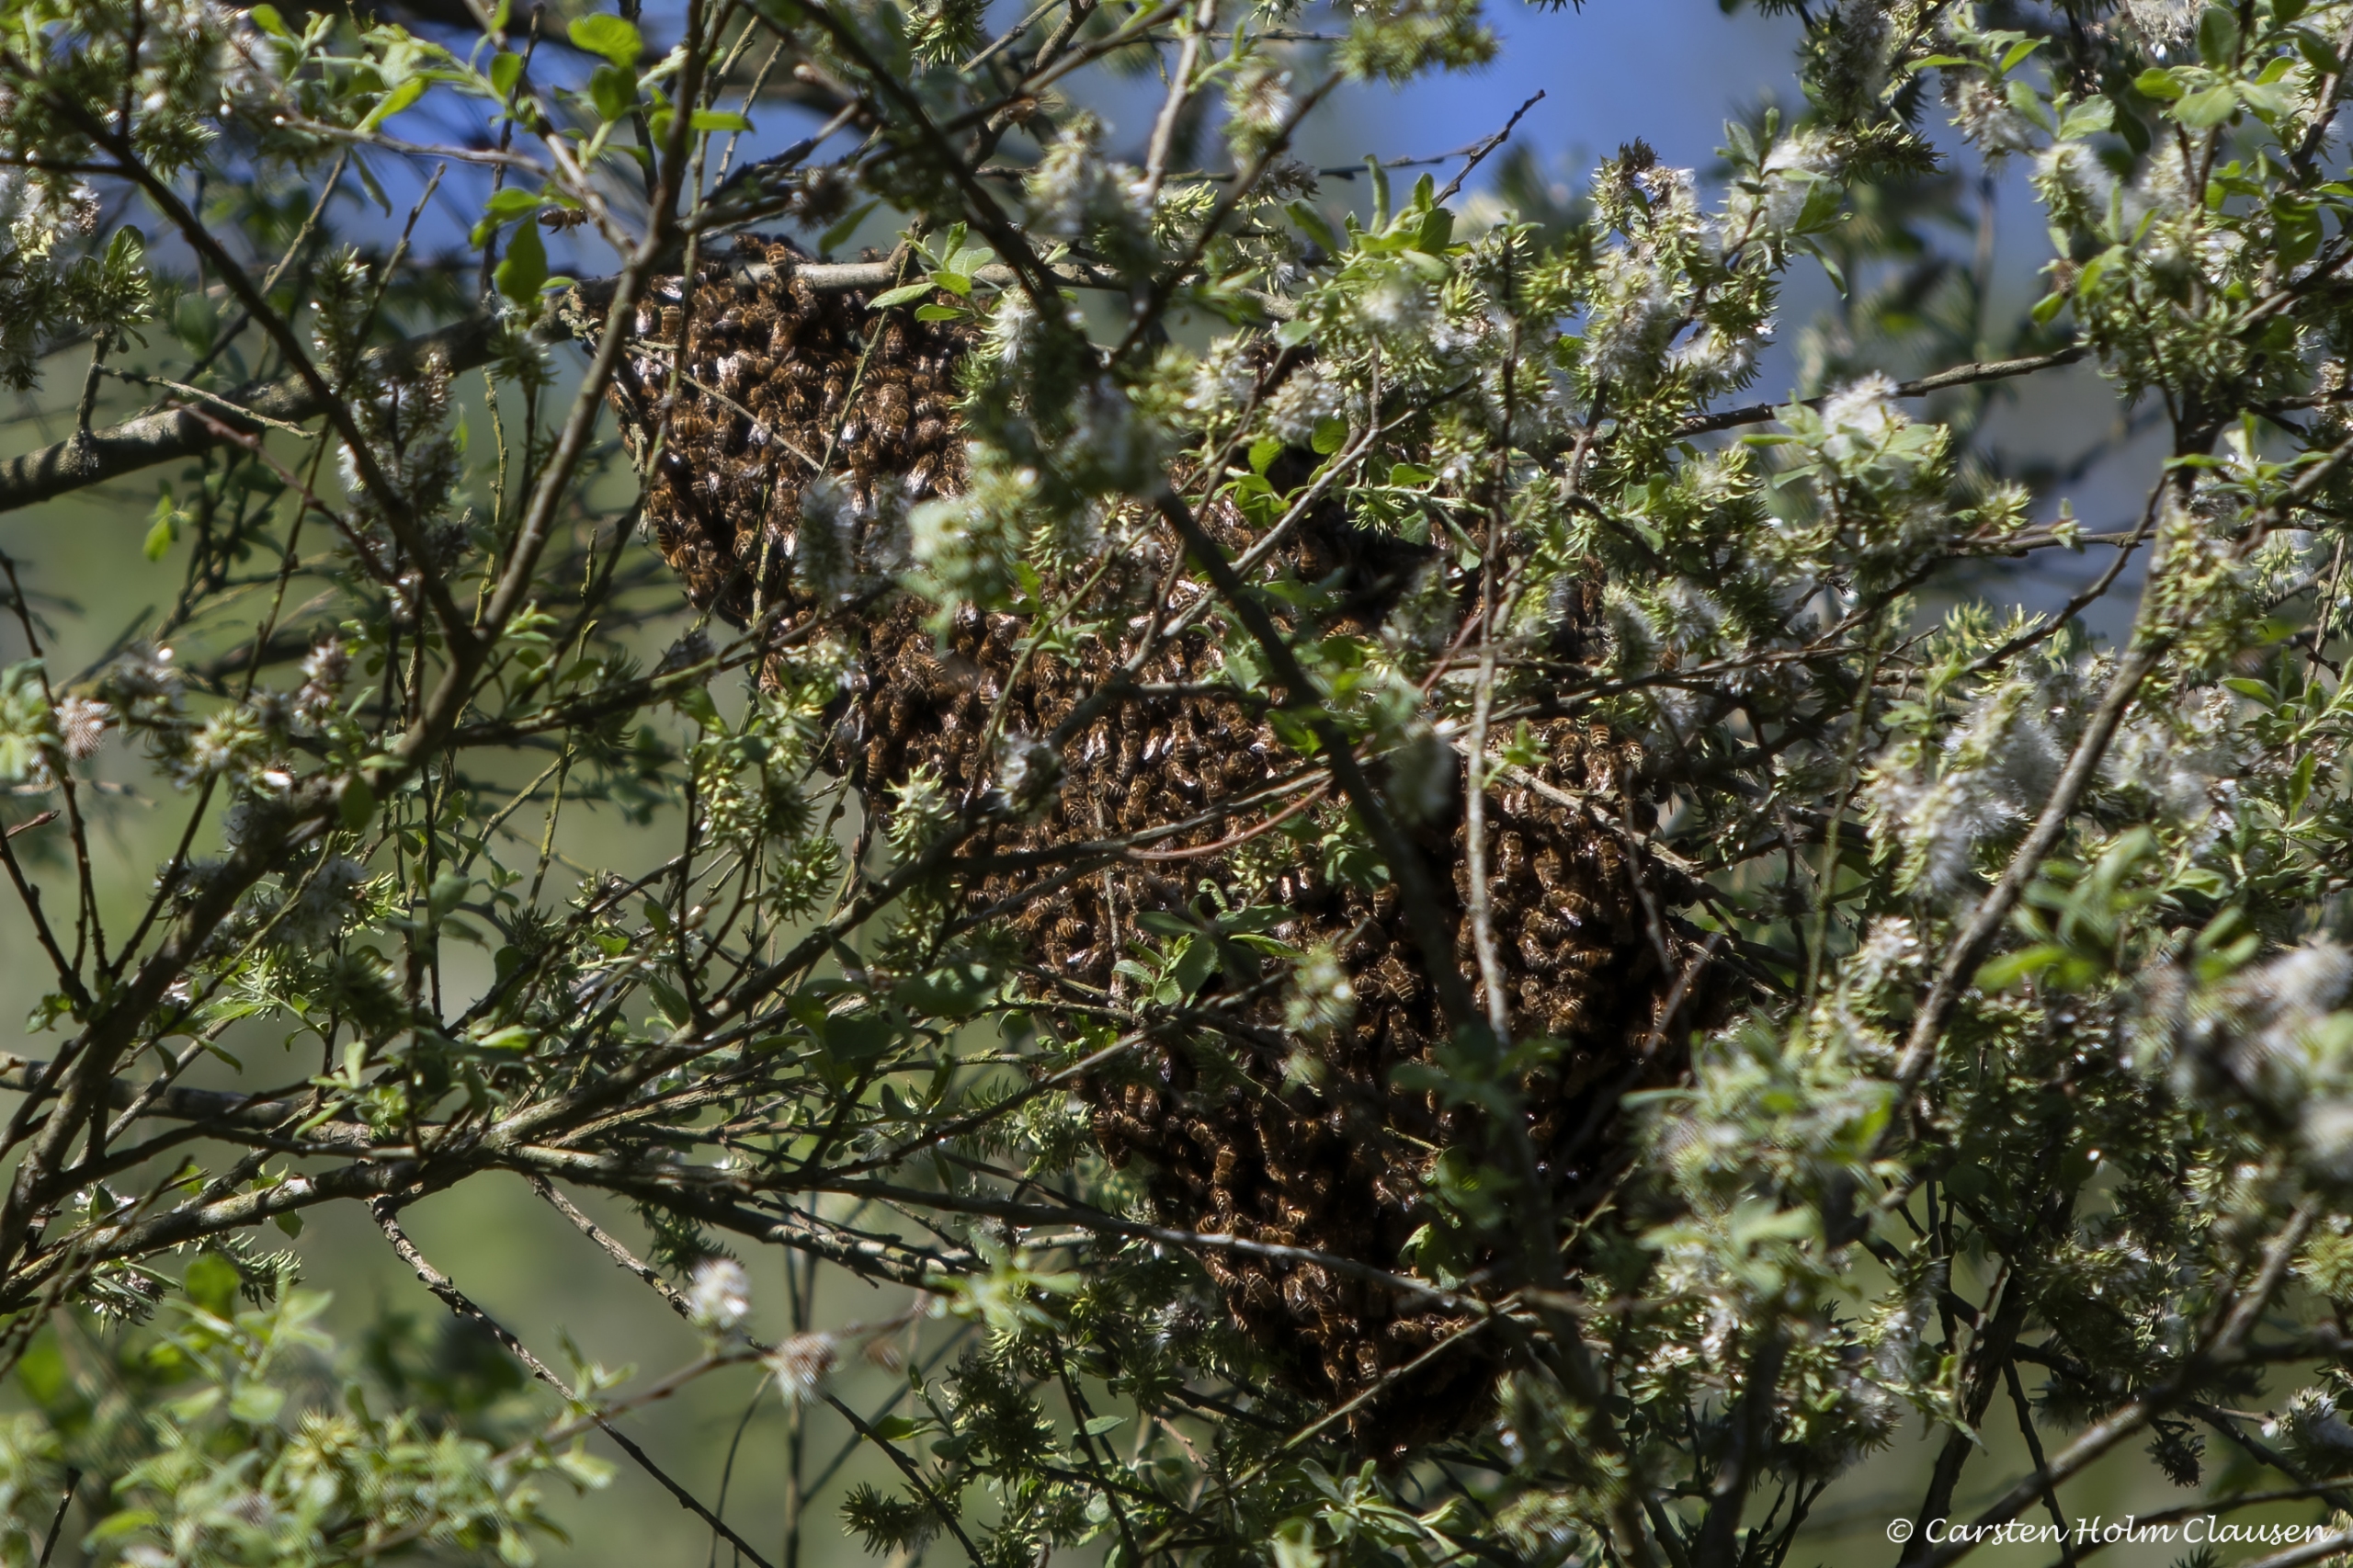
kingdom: Animalia
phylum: Arthropoda
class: Insecta
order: Hymenoptera
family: Apidae
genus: Apis
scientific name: Apis mellifera
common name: Honningbi
